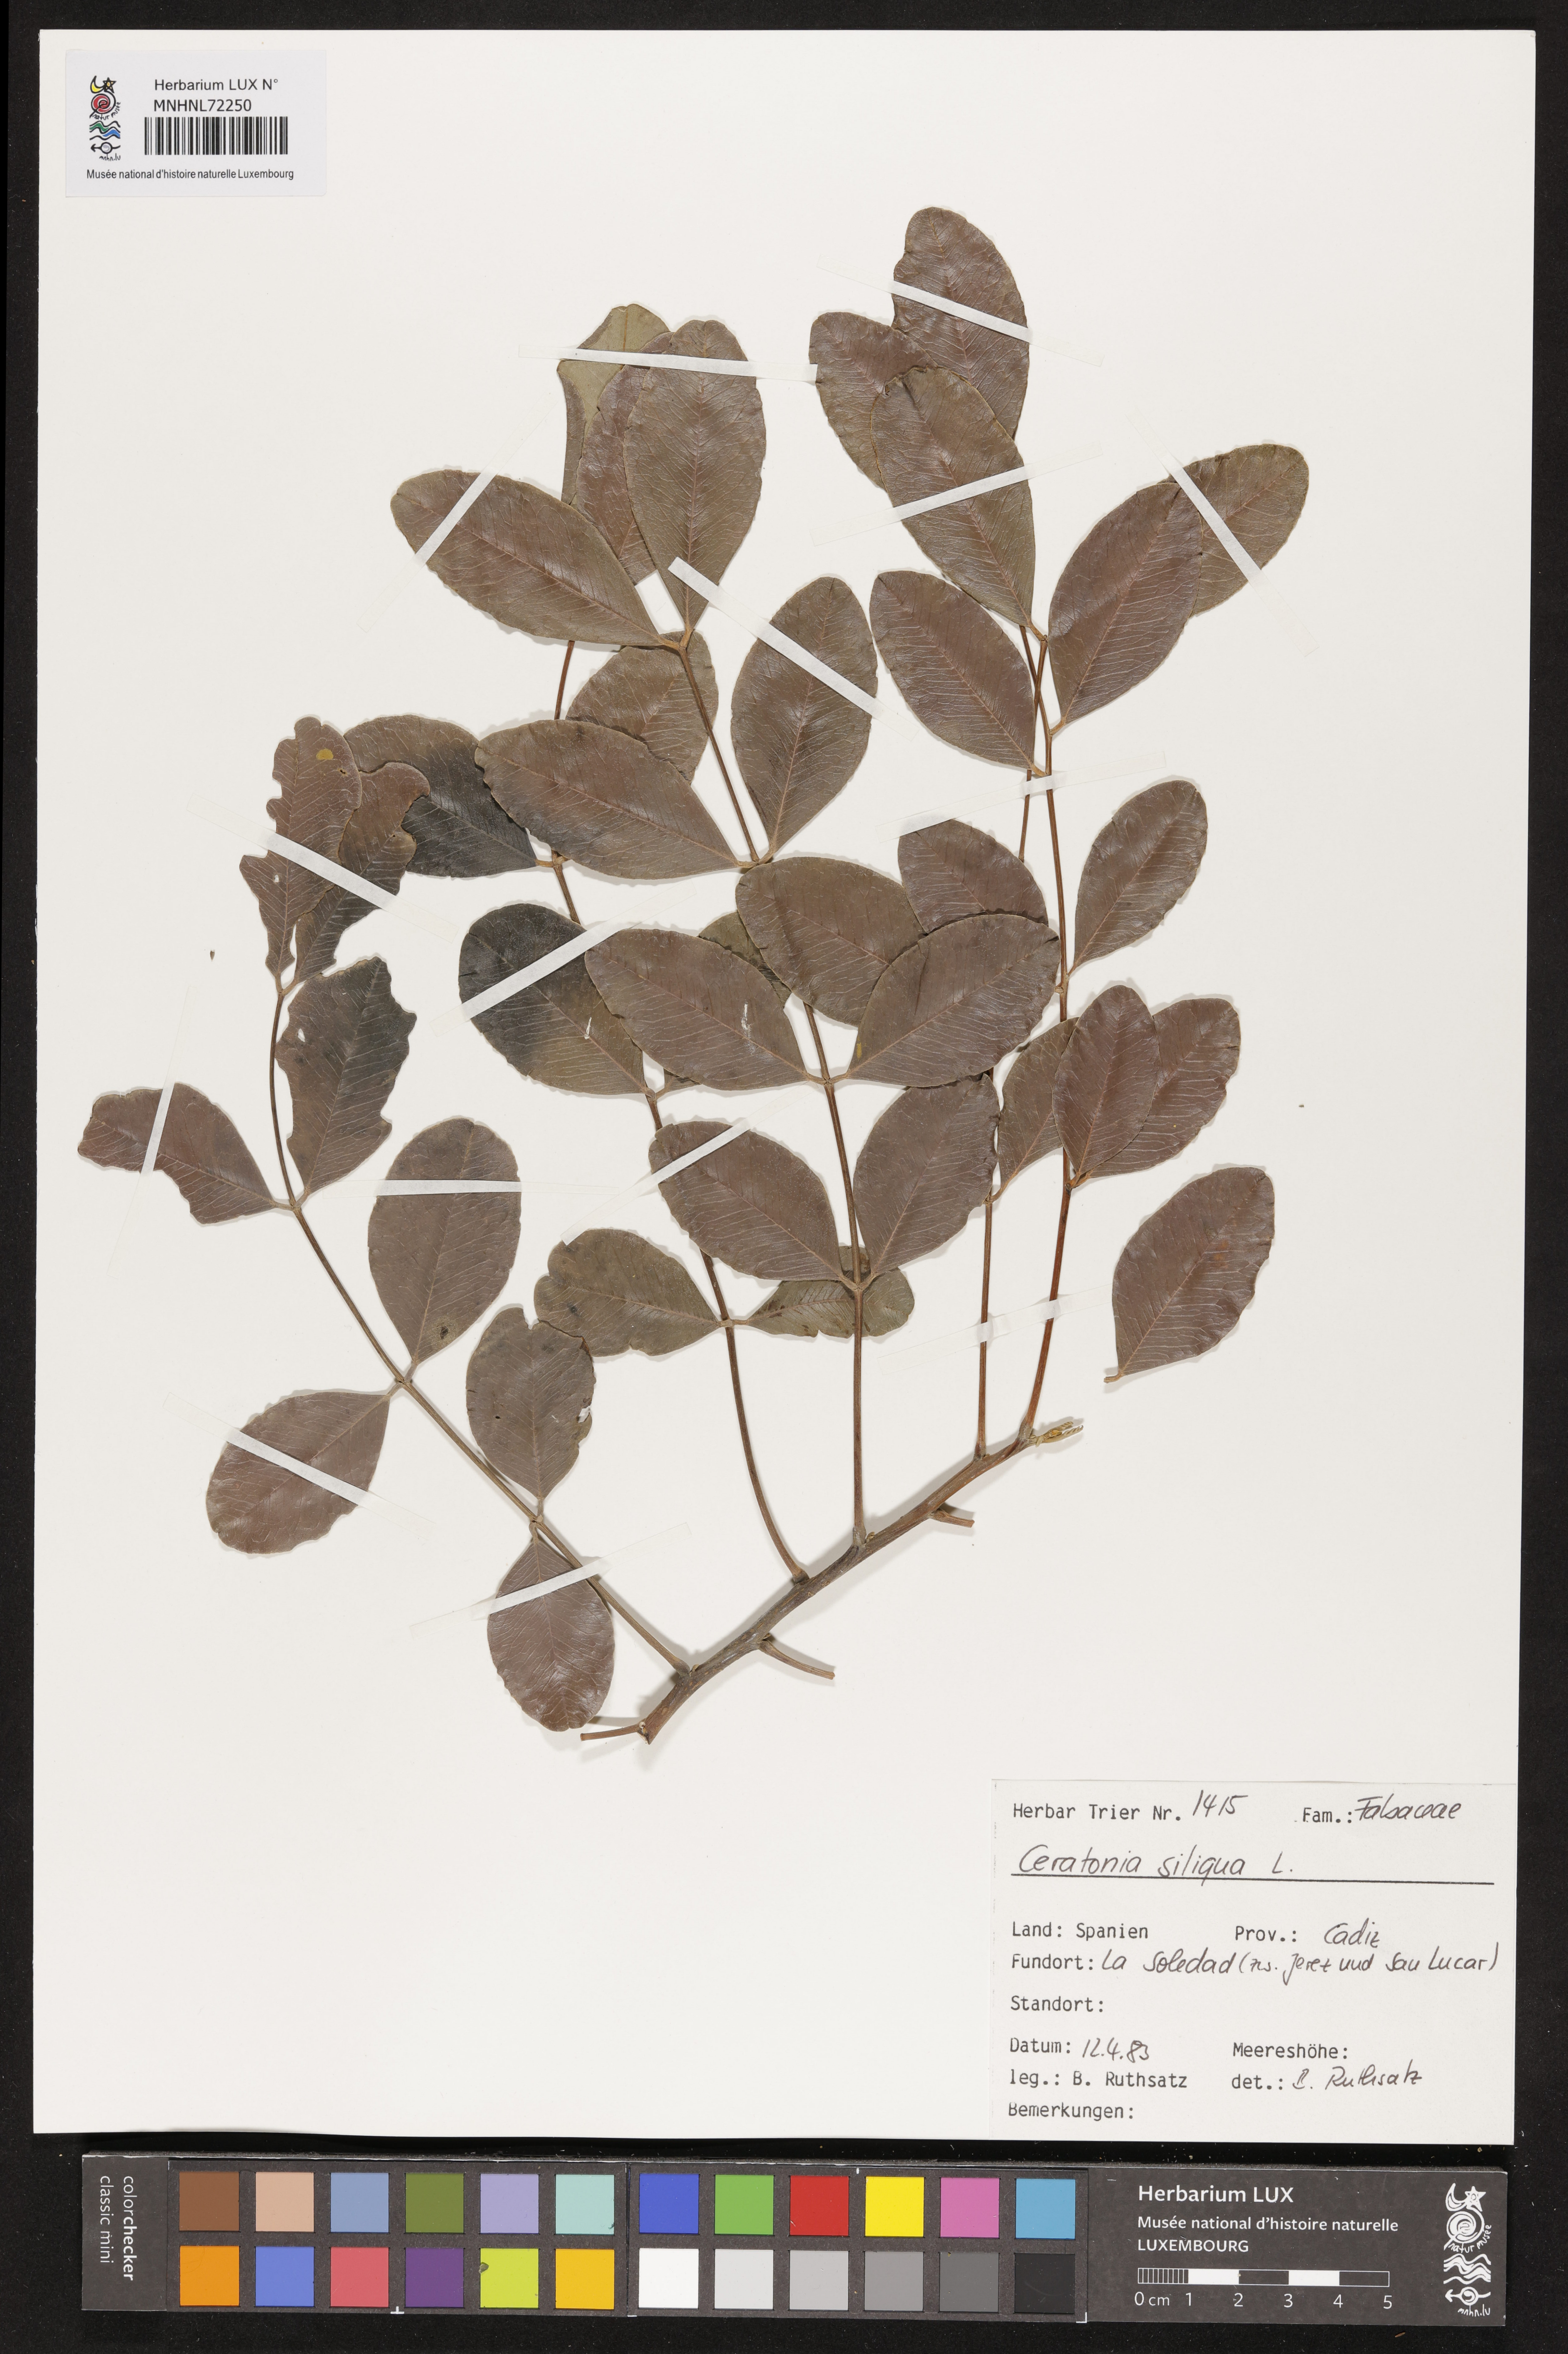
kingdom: Plantae
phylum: Tracheophyta
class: Magnoliopsida
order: Fabales
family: Fabaceae
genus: Ceratonia
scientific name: Ceratonia siliqua
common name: Carob
